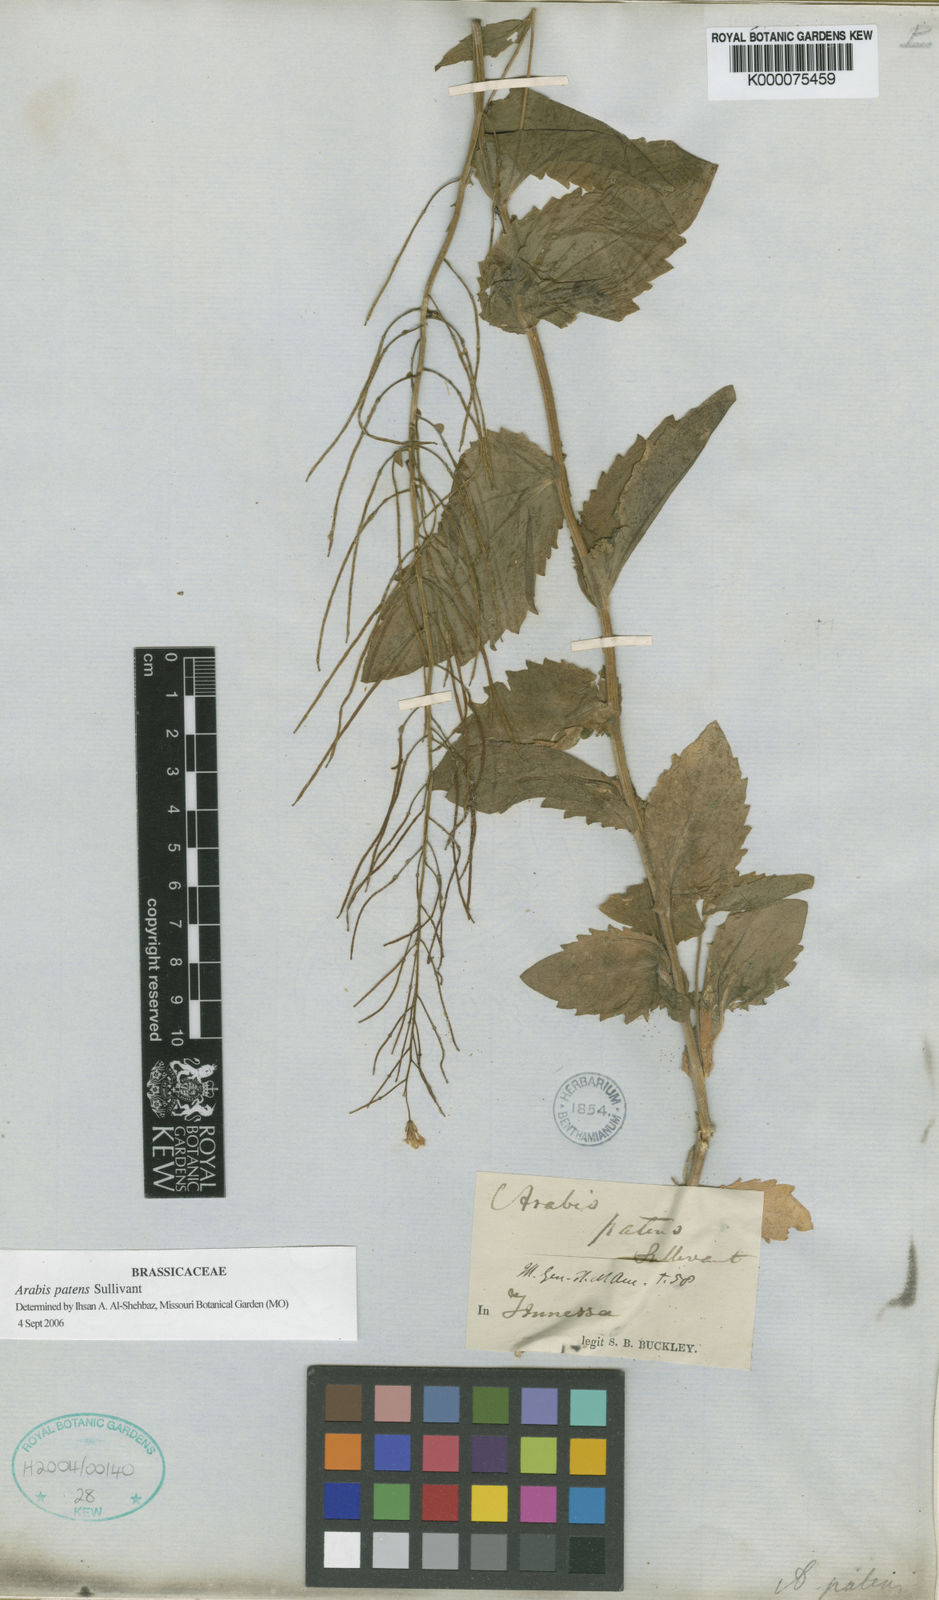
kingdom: Plantae
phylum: Tracheophyta
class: Magnoliopsida
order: Brassicales
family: Brassicaceae
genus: Arabis
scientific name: Arabis patens
